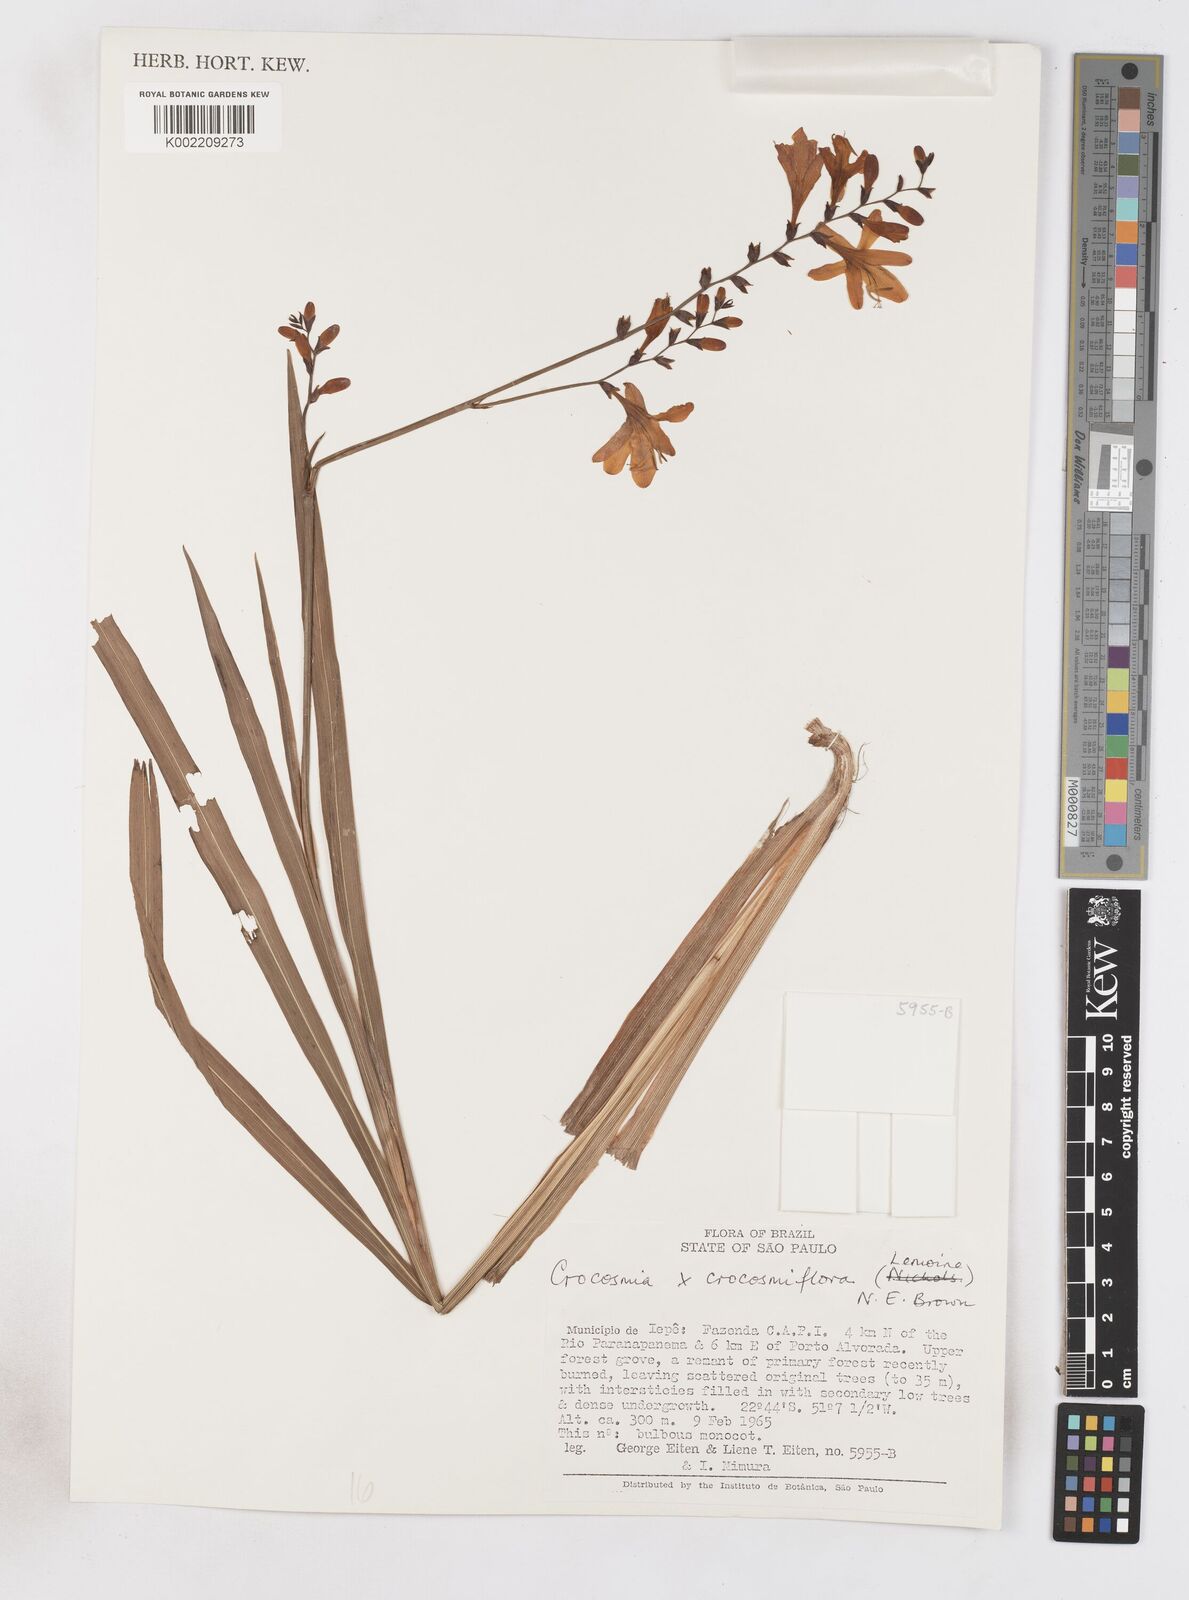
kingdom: Plantae
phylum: Tracheophyta
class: Liliopsida
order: Asparagales
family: Iridaceae
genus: Crocosmia
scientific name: Crocosmia crocosmiiflora
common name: Montbretia
